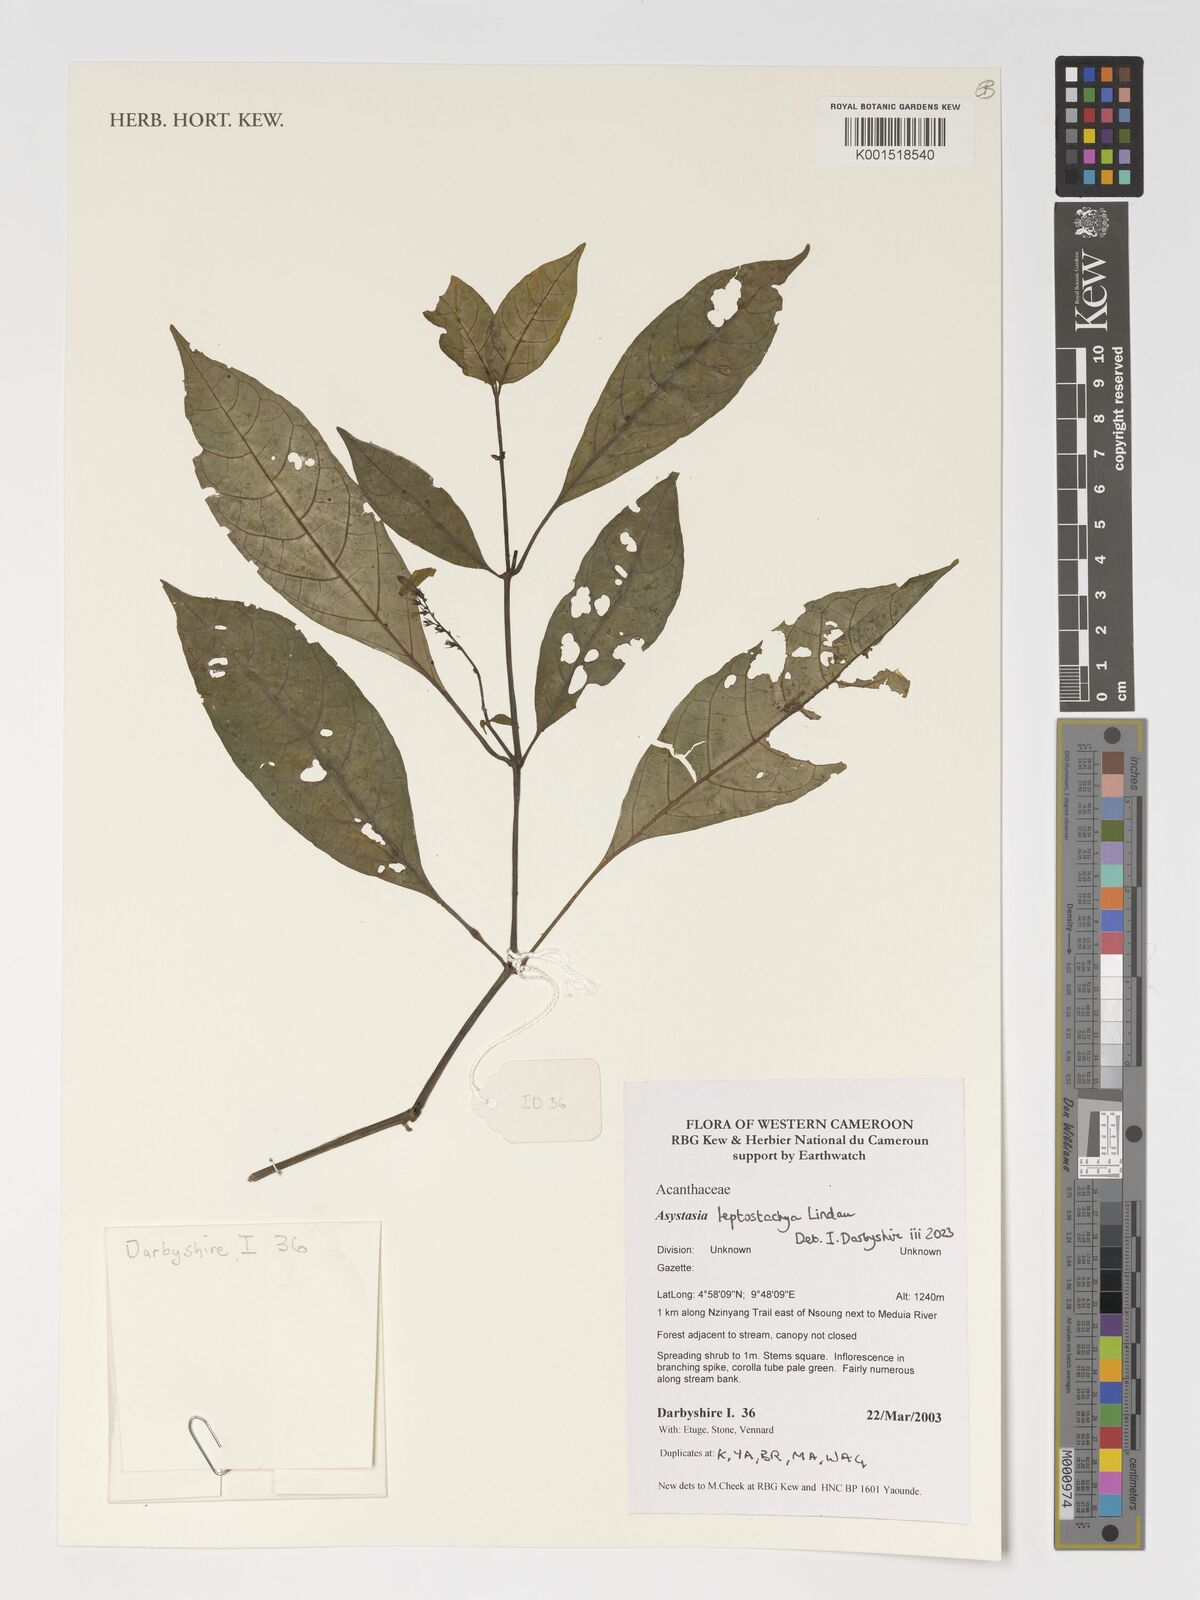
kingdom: Plantae
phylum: Tracheophyta
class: Magnoliopsida
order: Lamiales
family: Acanthaceae
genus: Asystasia
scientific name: Asystasia leptostachya
